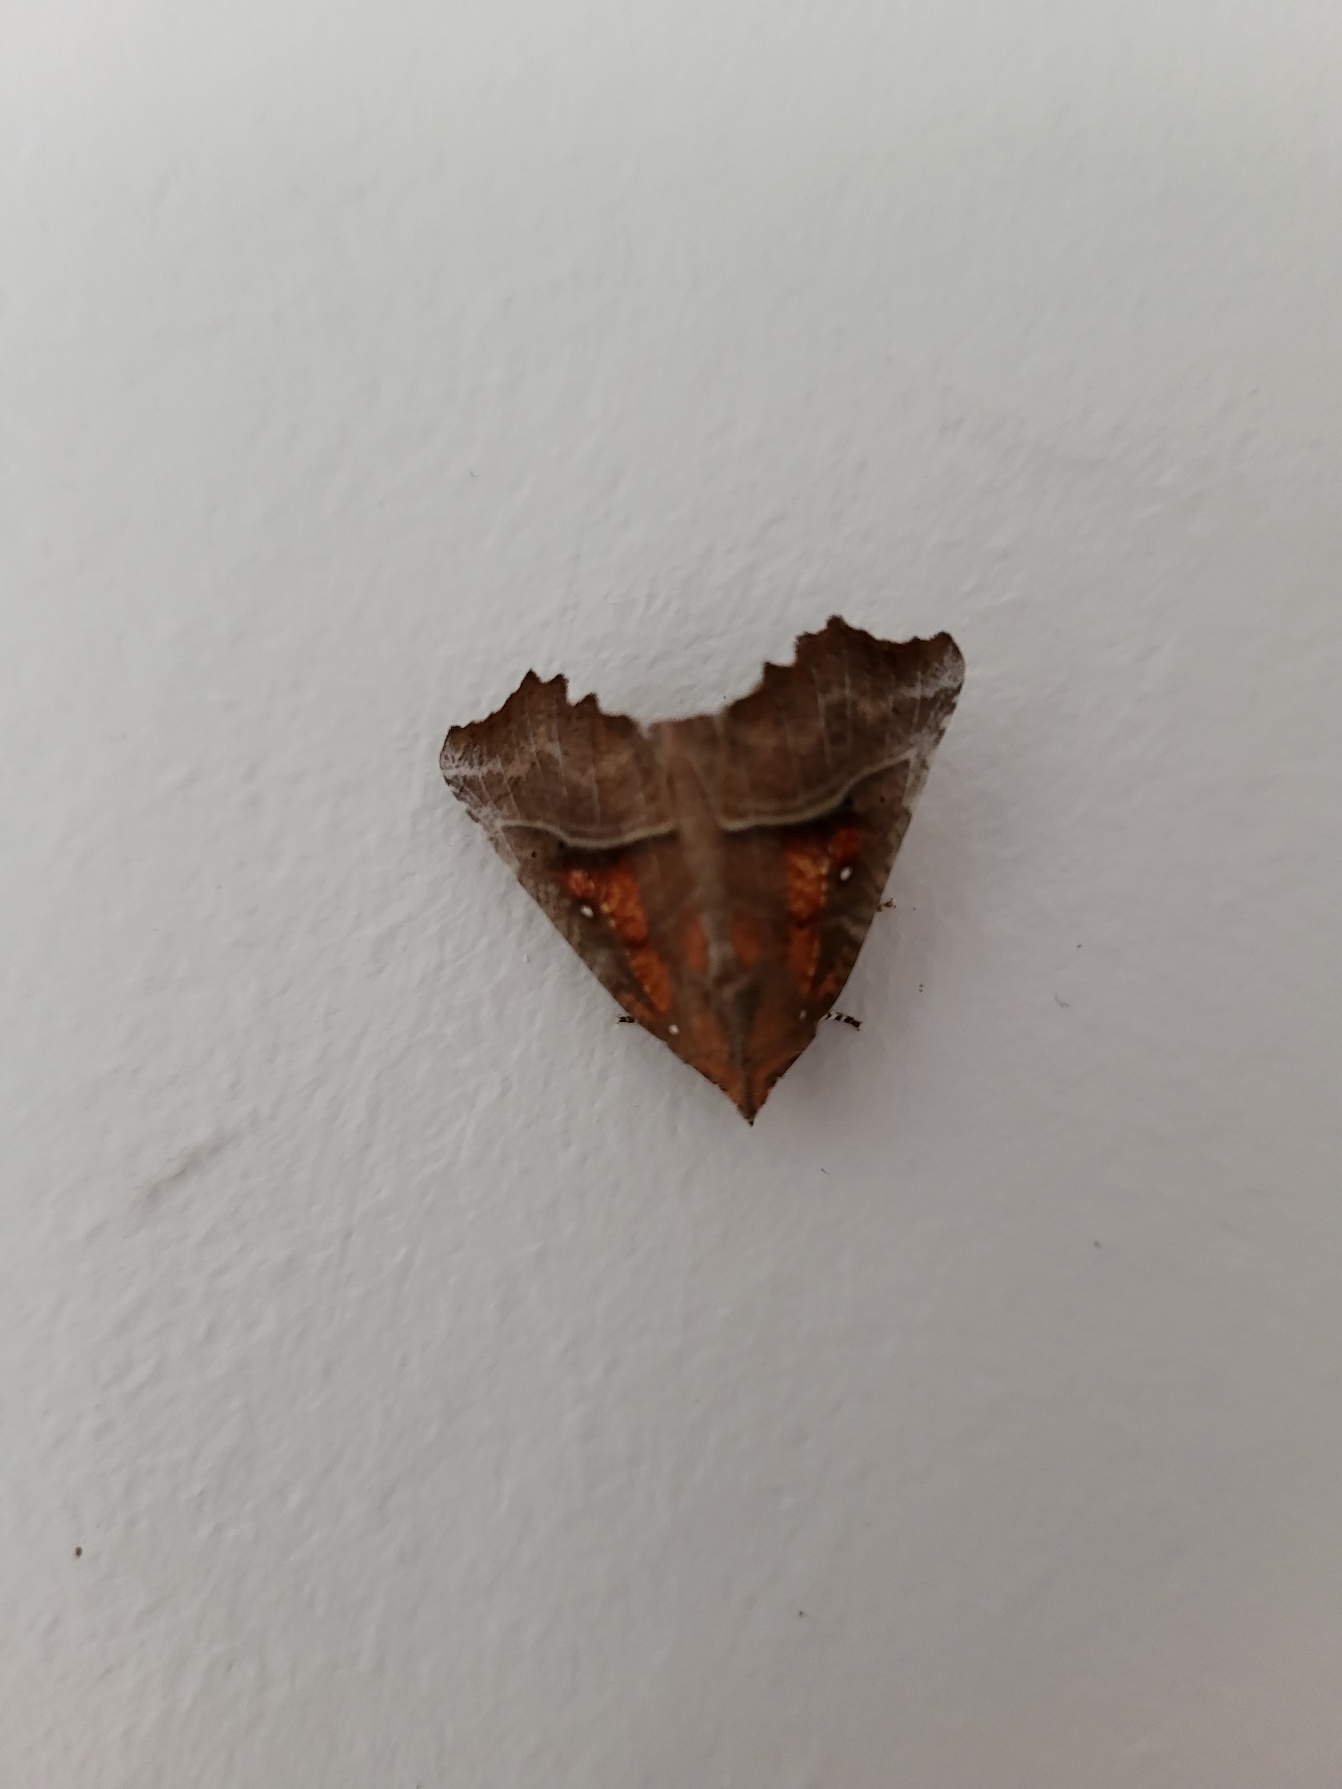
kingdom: Animalia
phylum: Arthropoda
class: Insecta
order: Lepidoptera
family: Erebidae
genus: Scoliopteryx
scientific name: Scoliopteryx libatrix
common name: Husmoderugle
